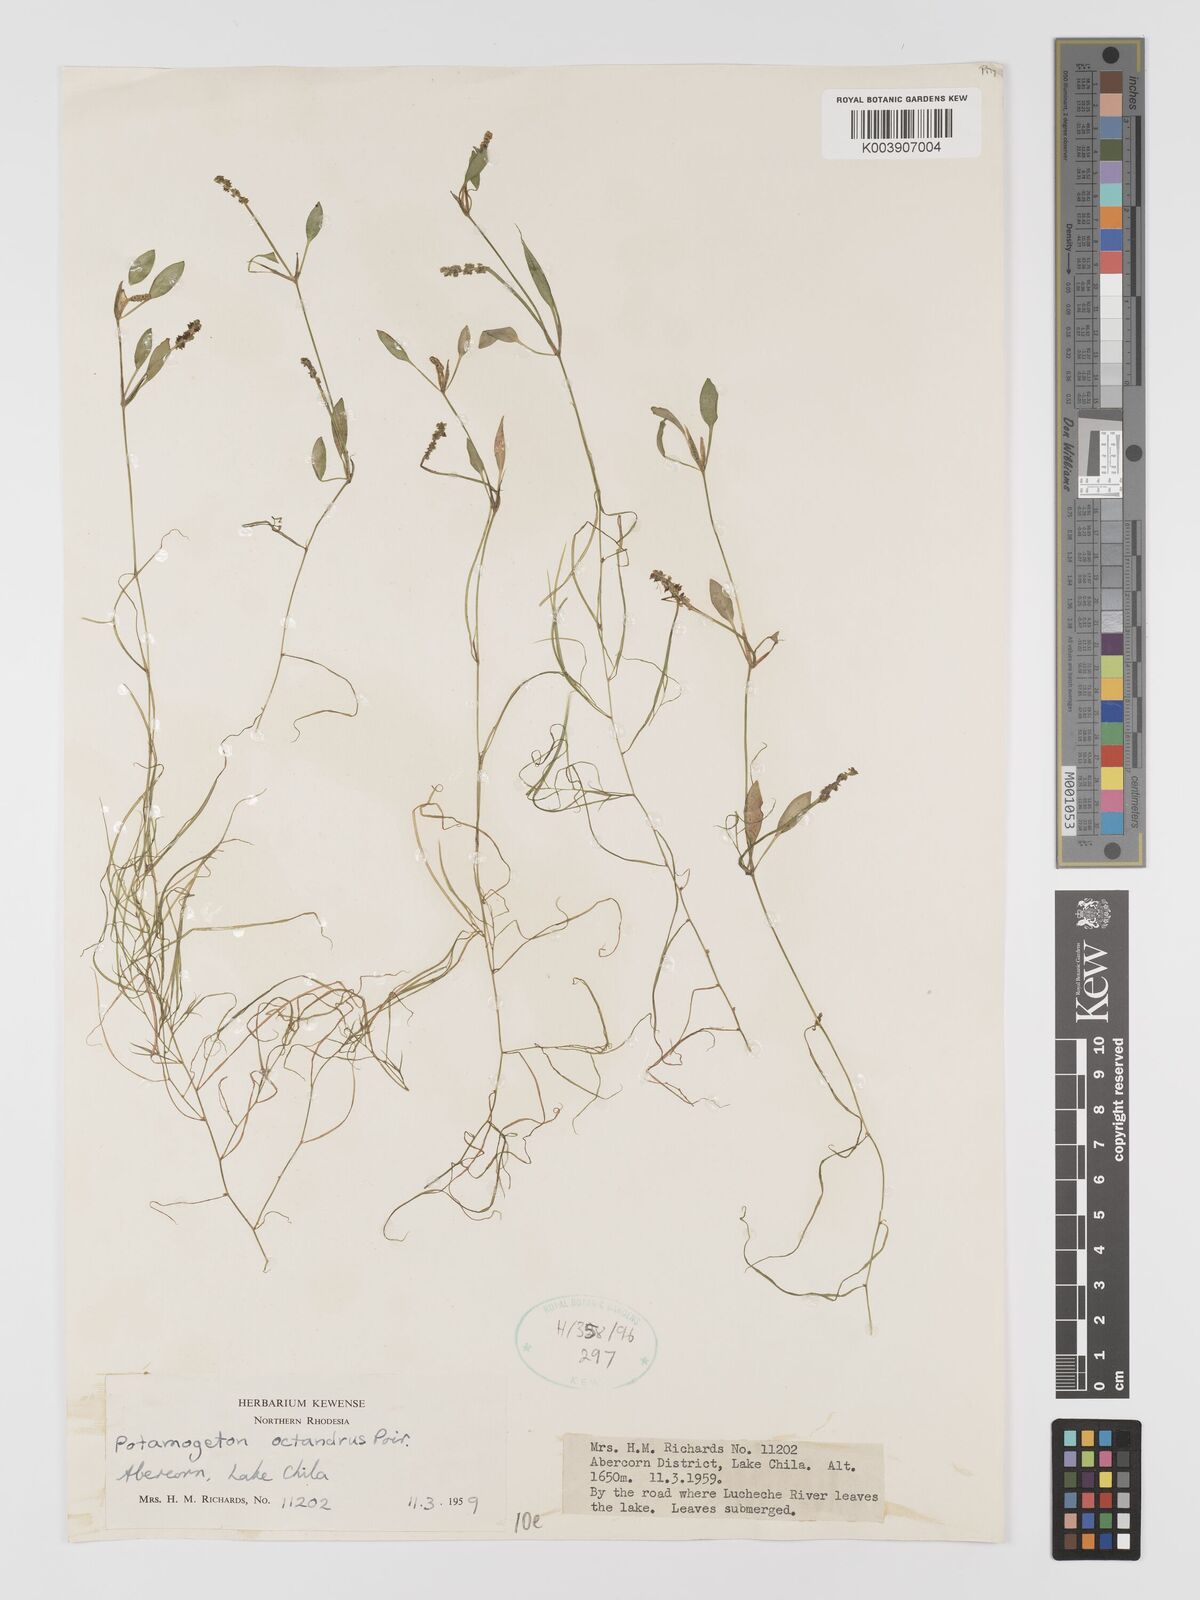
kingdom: Plantae
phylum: Tracheophyta
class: Liliopsida
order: Alismatales
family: Potamogetonaceae
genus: Potamogeton
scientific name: Potamogeton octandrus
